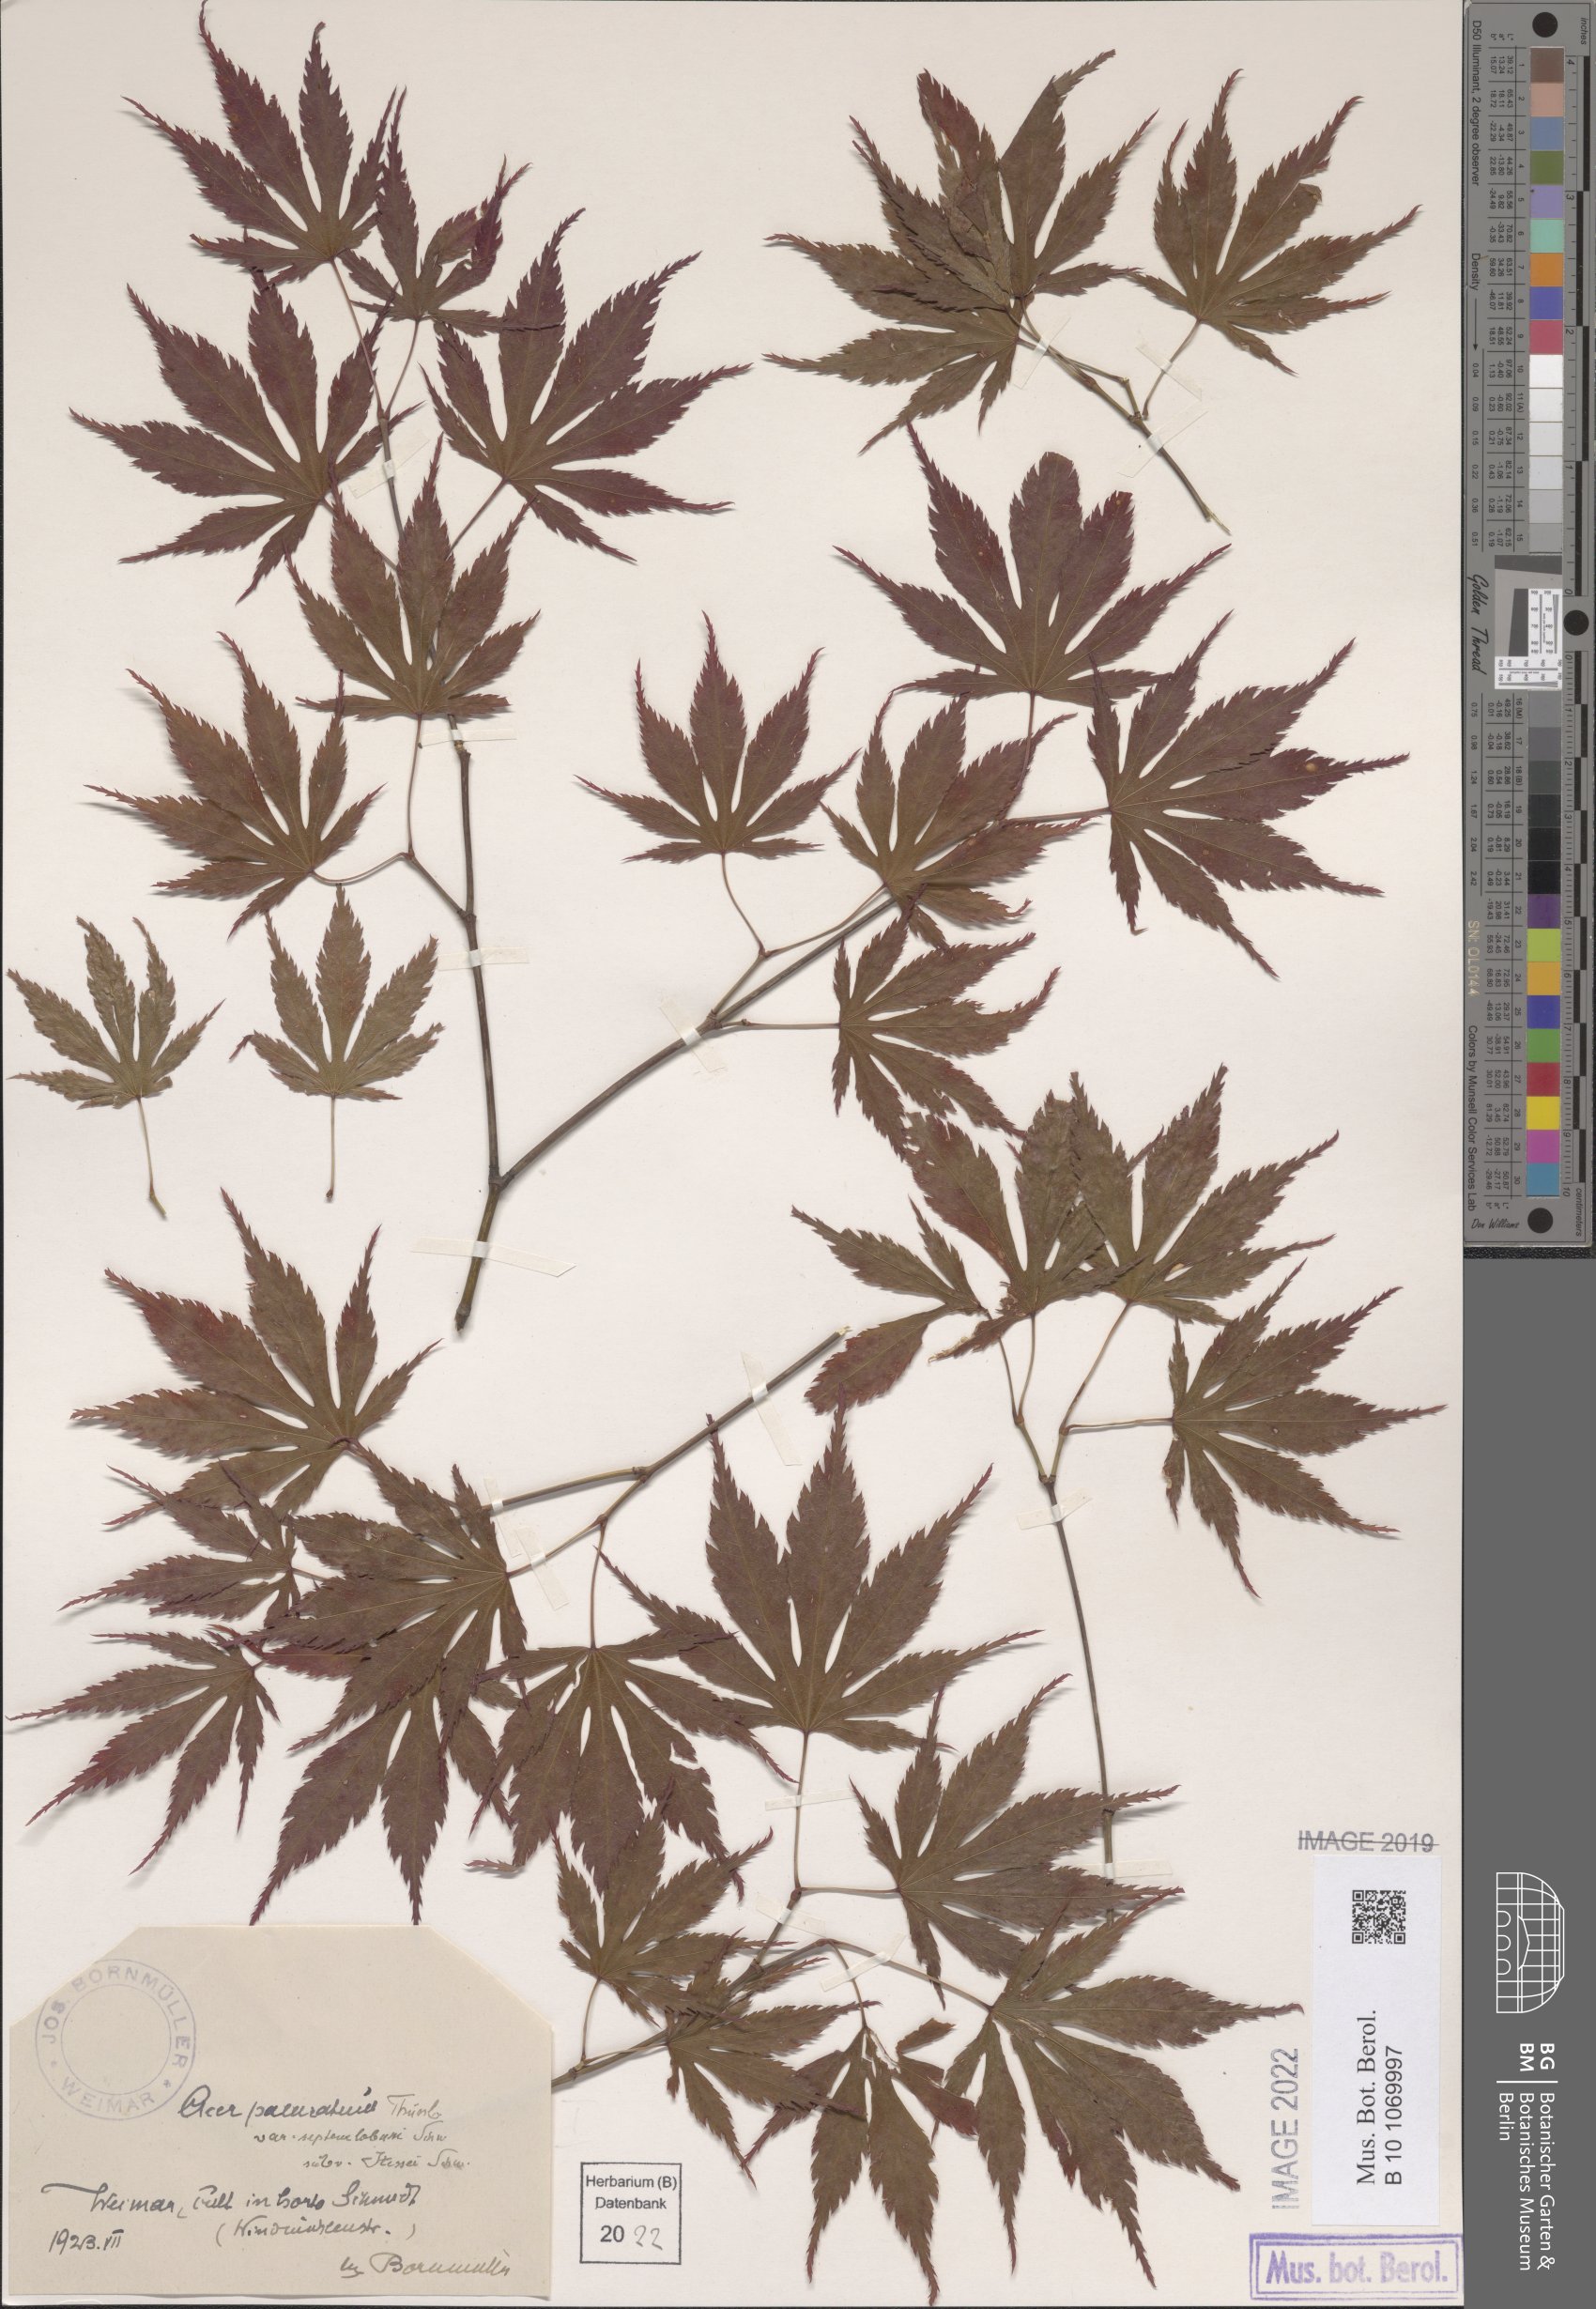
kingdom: Plantae
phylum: Tracheophyta
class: Magnoliopsida
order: Sapindales
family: Sapindaceae
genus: Acer
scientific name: Acer palmatum
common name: Japanese maple
